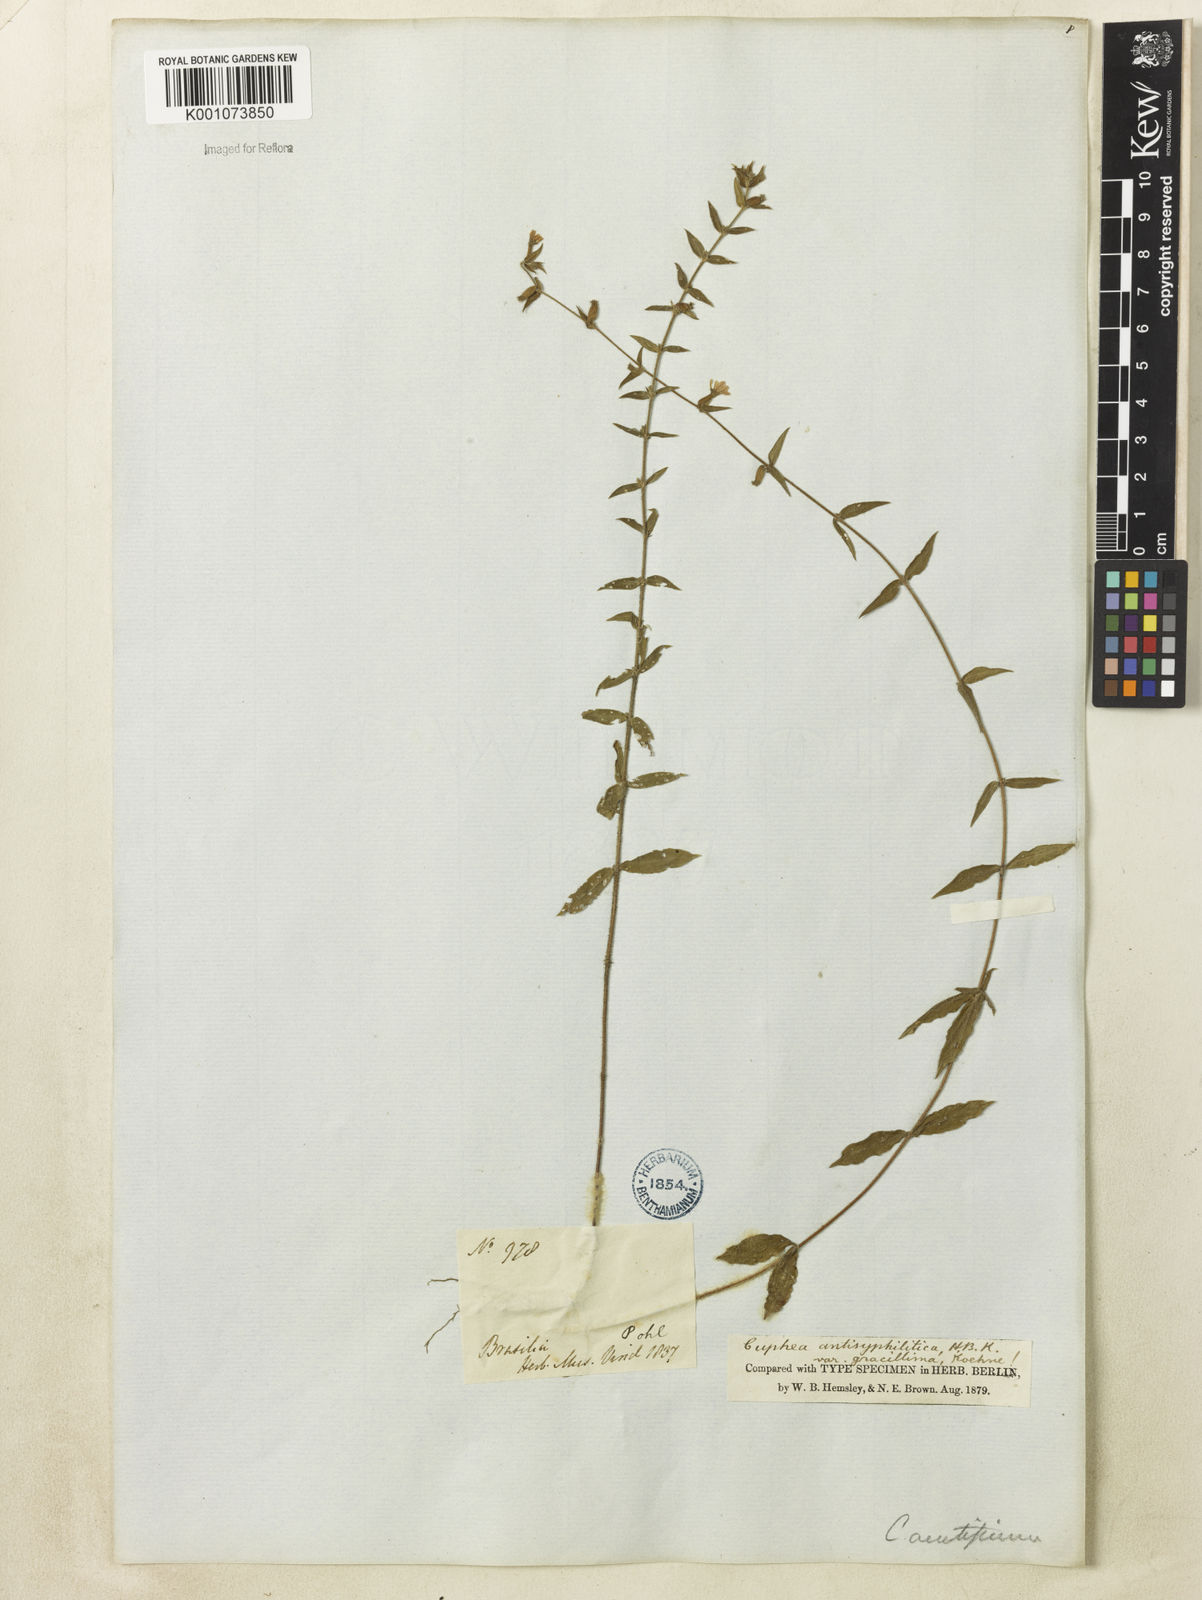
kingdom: Plantae
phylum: Tracheophyta
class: Magnoliopsida
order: Myrtales
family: Lythraceae
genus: Cuphea
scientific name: Cuphea antisyphilitica
